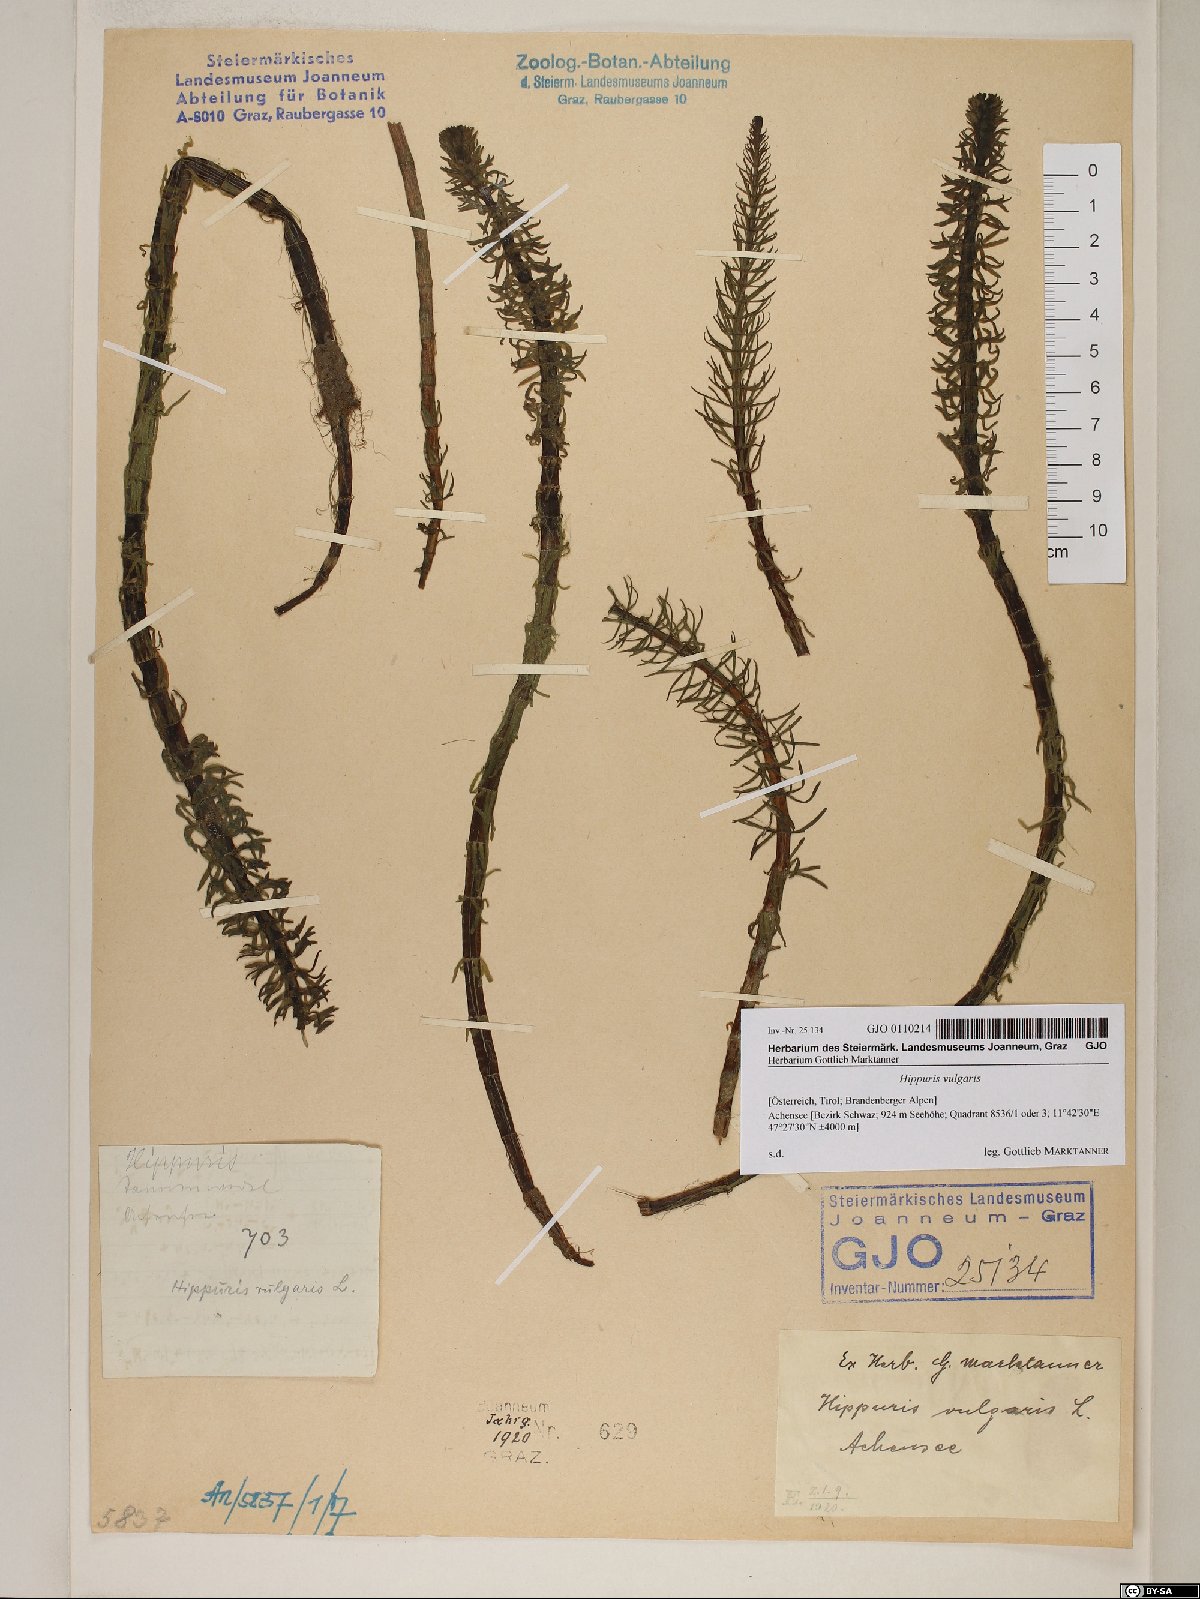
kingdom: Plantae
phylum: Tracheophyta
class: Magnoliopsida
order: Lamiales
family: Plantaginaceae
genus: Hippuris
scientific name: Hippuris vulgaris
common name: Mare's-tail
